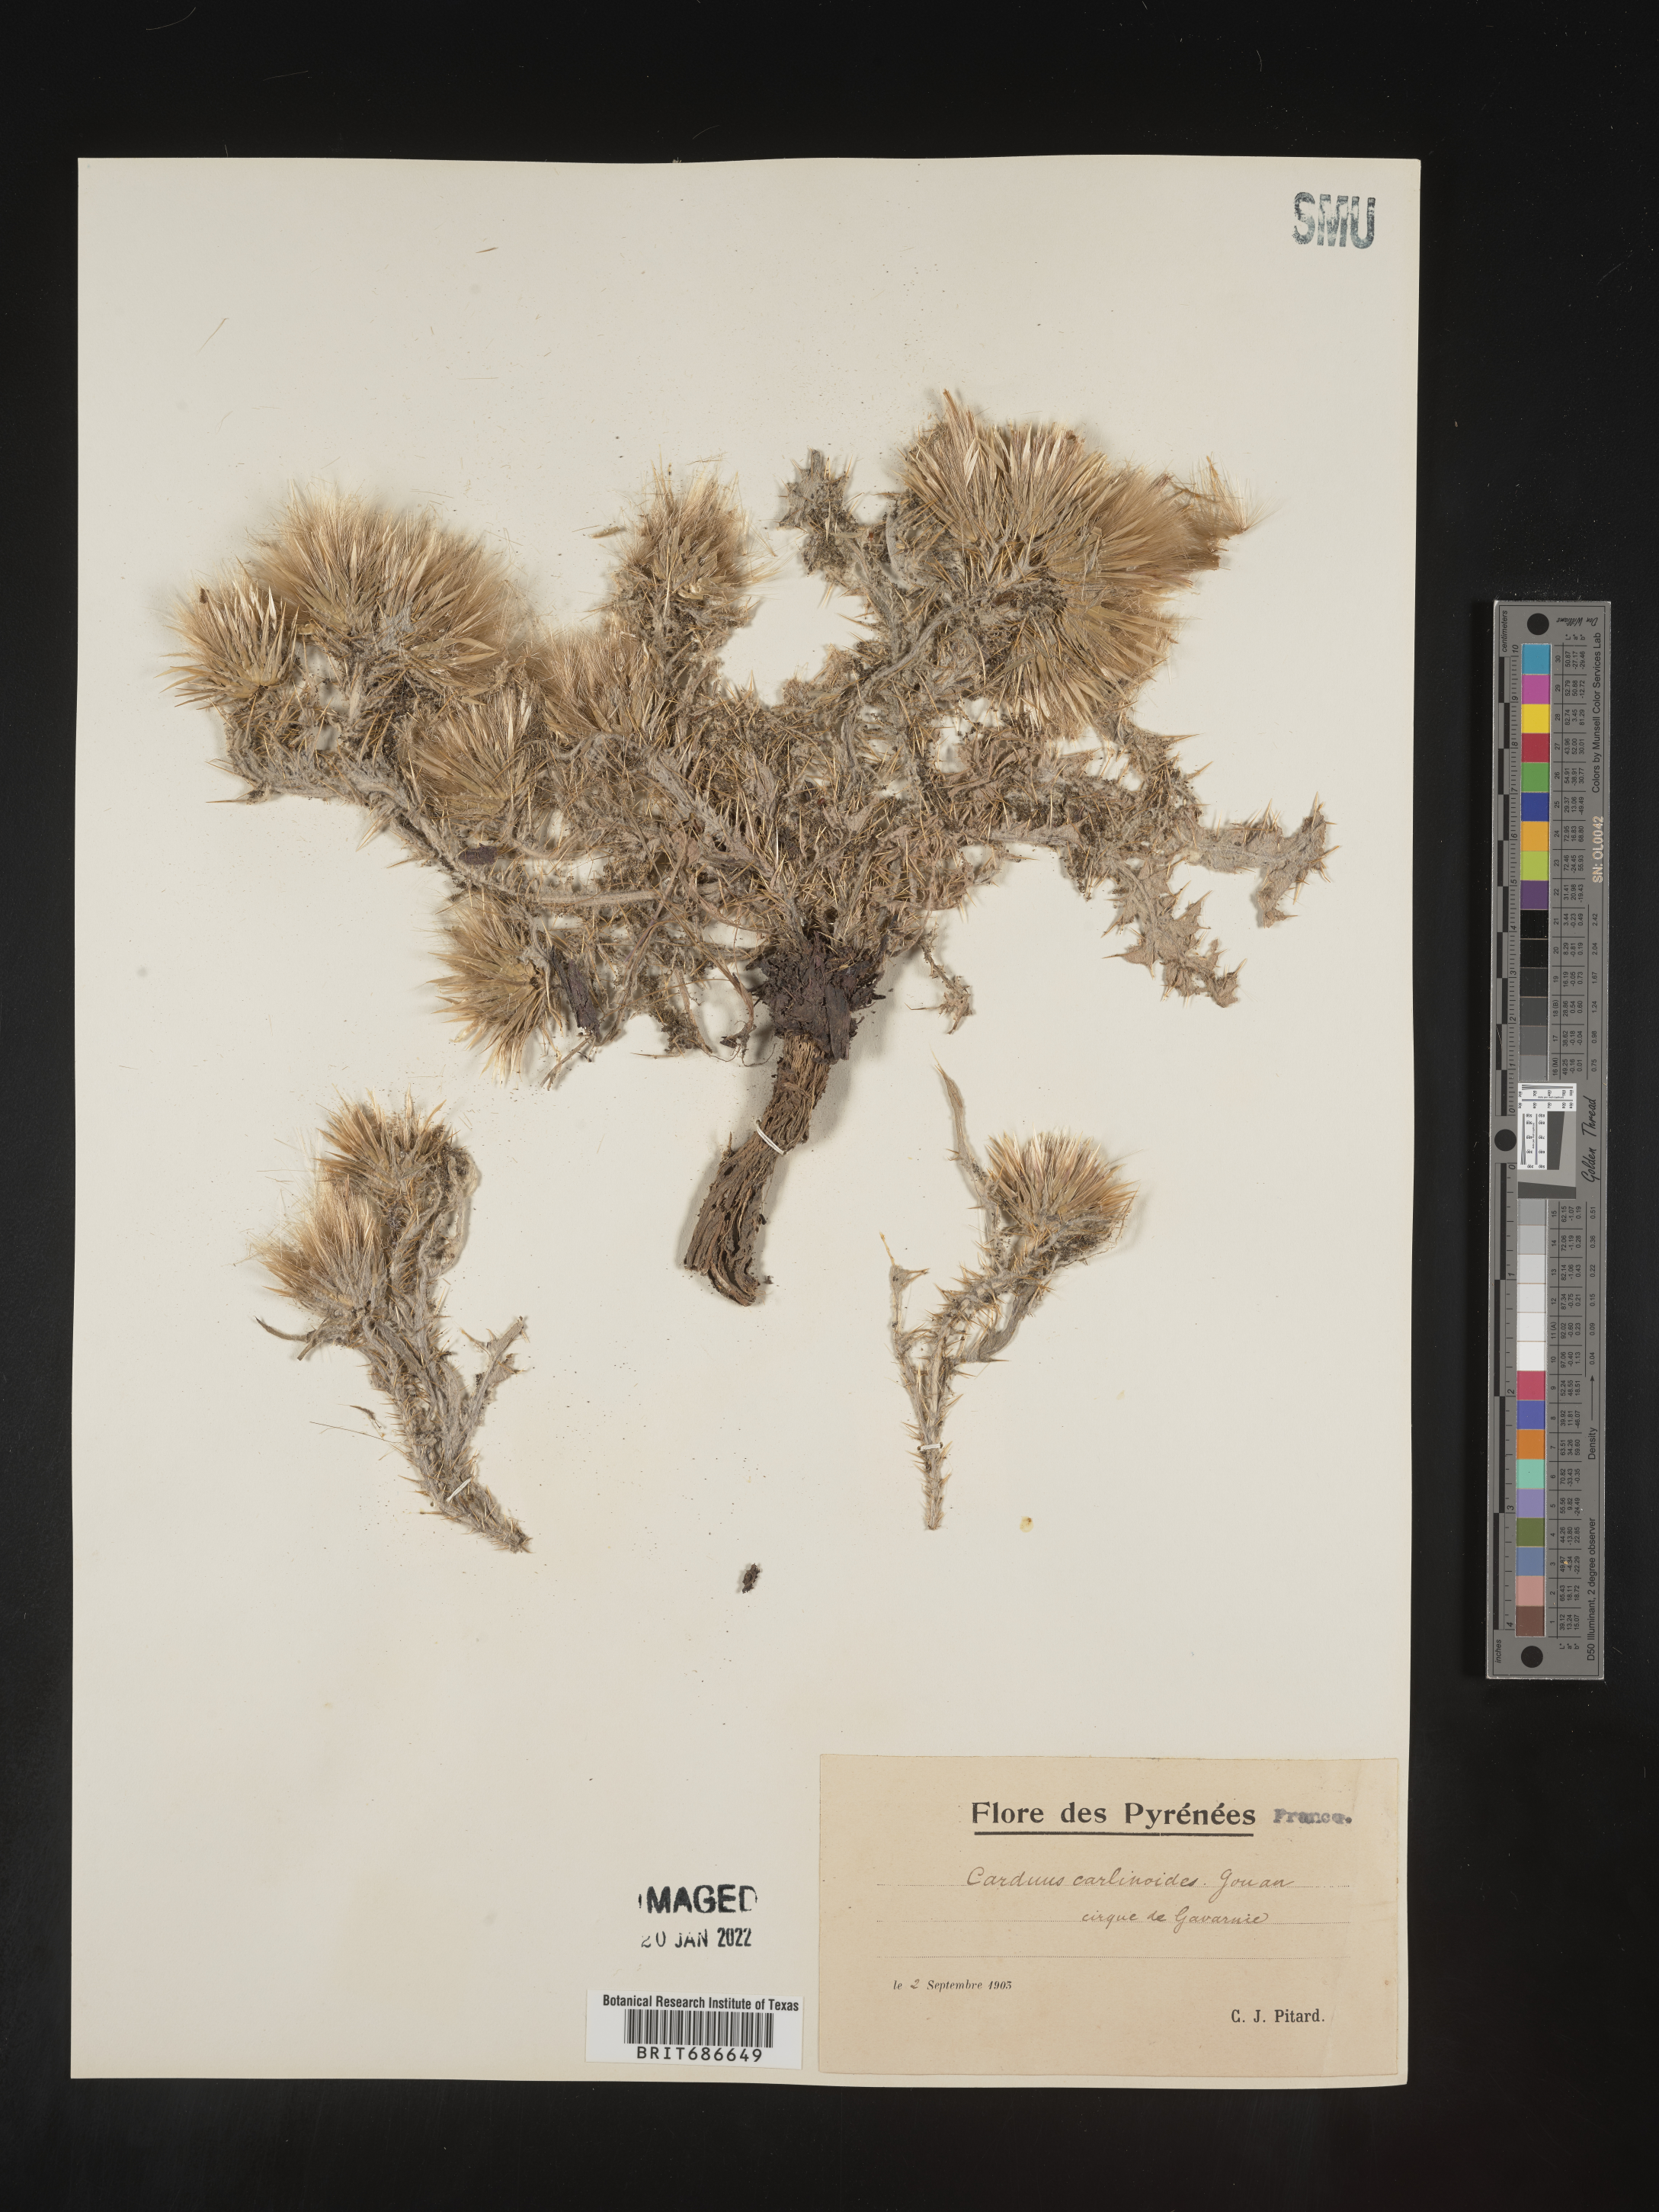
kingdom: Plantae
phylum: Tracheophyta
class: Magnoliopsida
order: Asterales
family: Asteraceae
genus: Carduus
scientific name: Carduus
